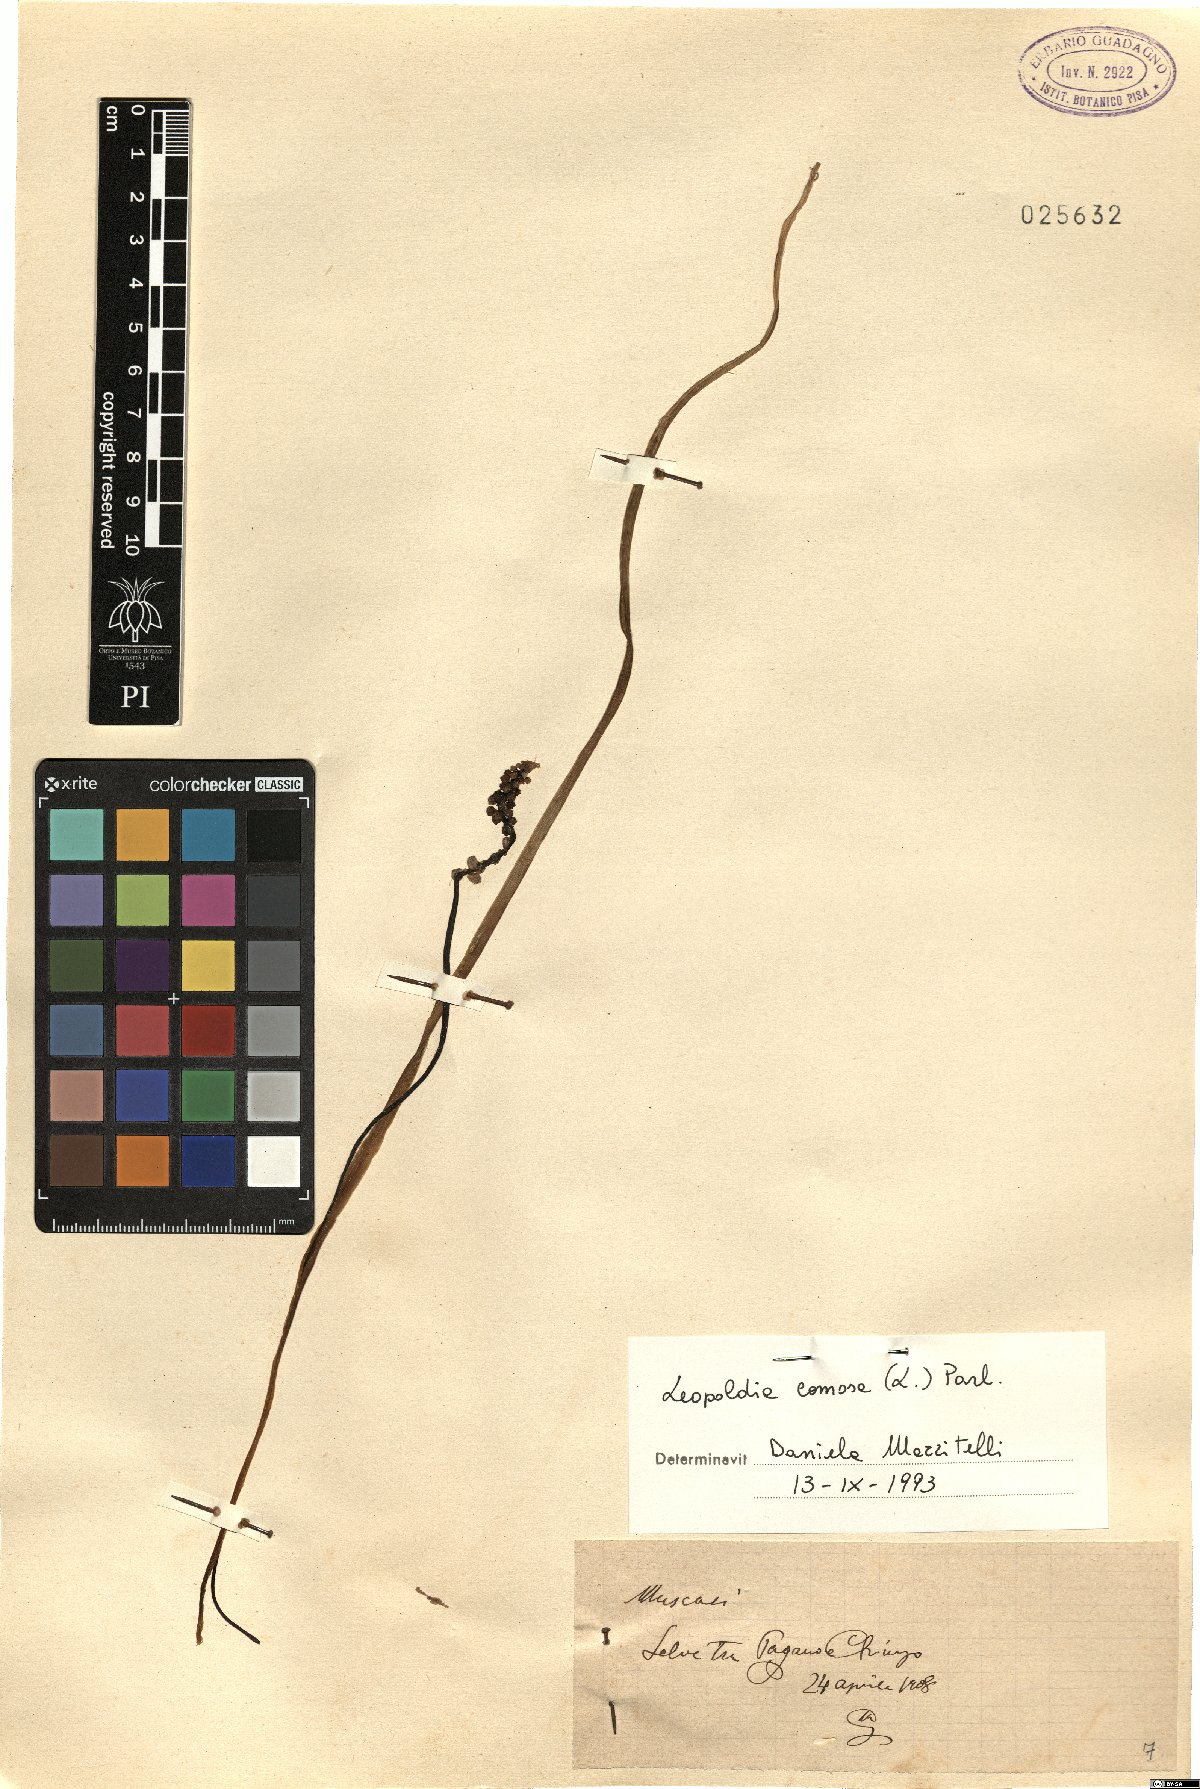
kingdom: Plantae
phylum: Tracheophyta
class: Liliopsida
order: Asparagales
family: Asparagaceae
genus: Muscari
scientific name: Muscari comosum
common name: Tassel hyacinth
